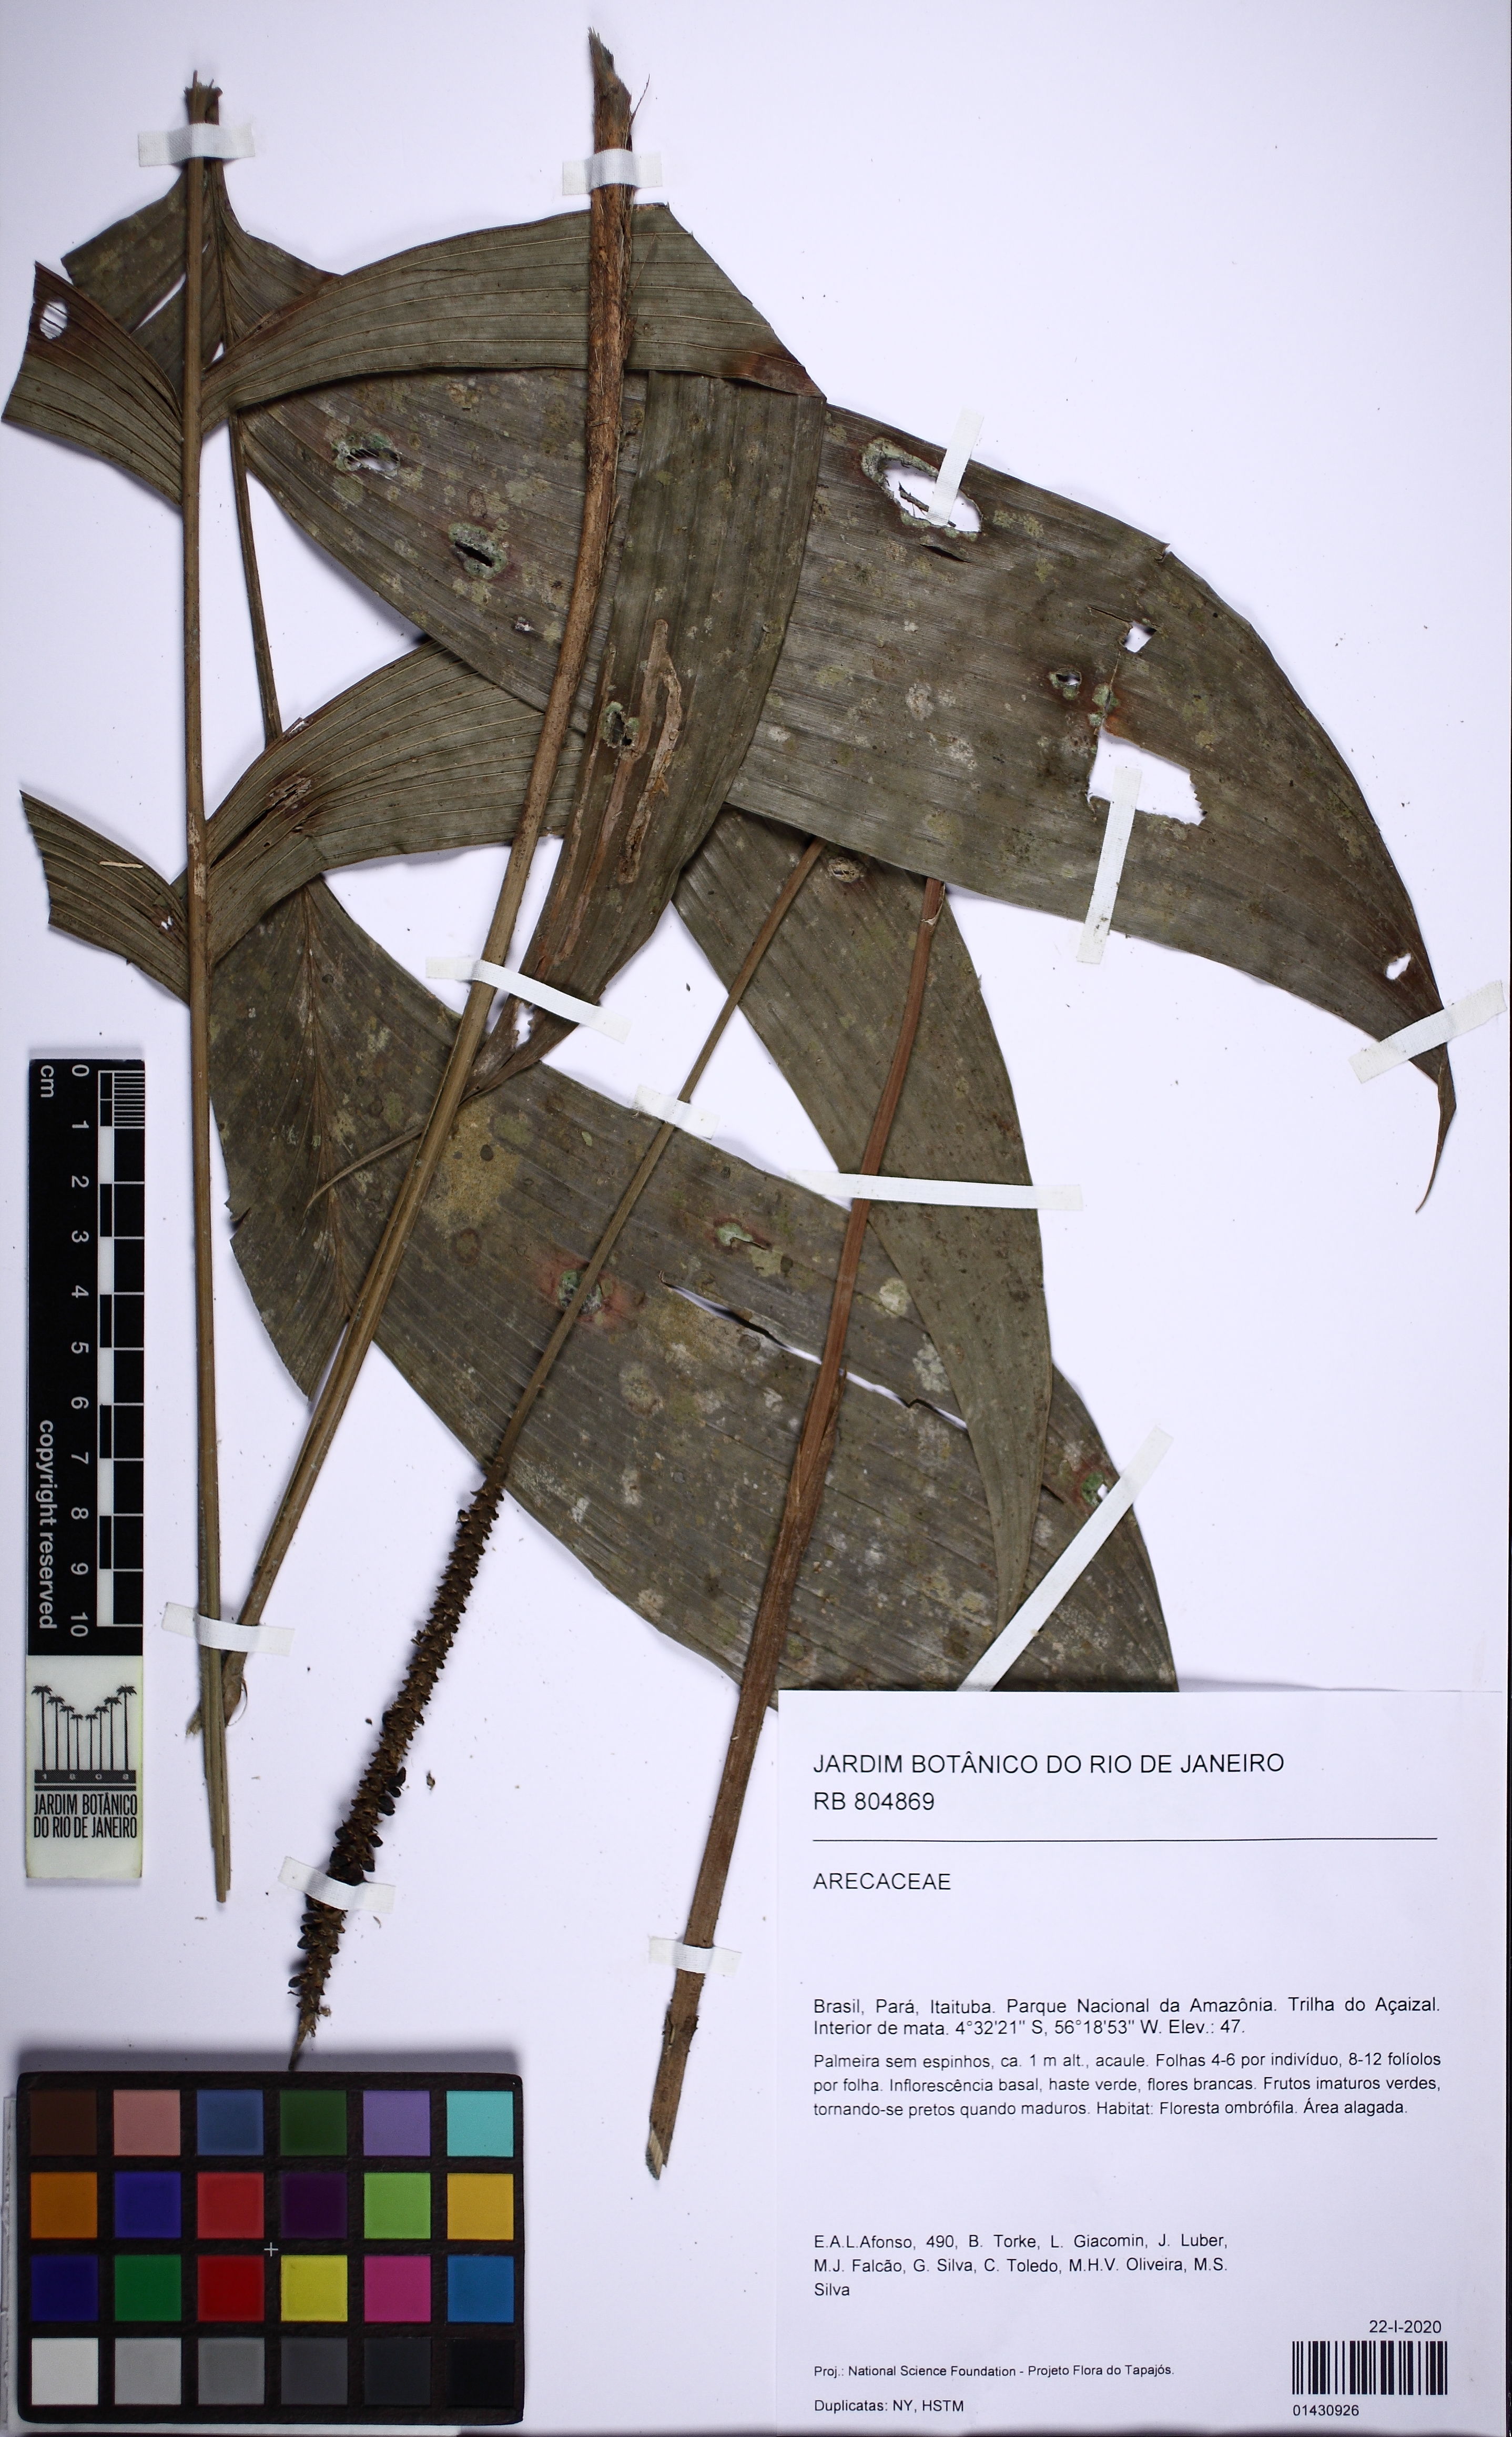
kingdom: Plantae
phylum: Tracheophyta
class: Liliopsida
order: Arecales
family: Arecaceae
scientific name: Arecaceae
